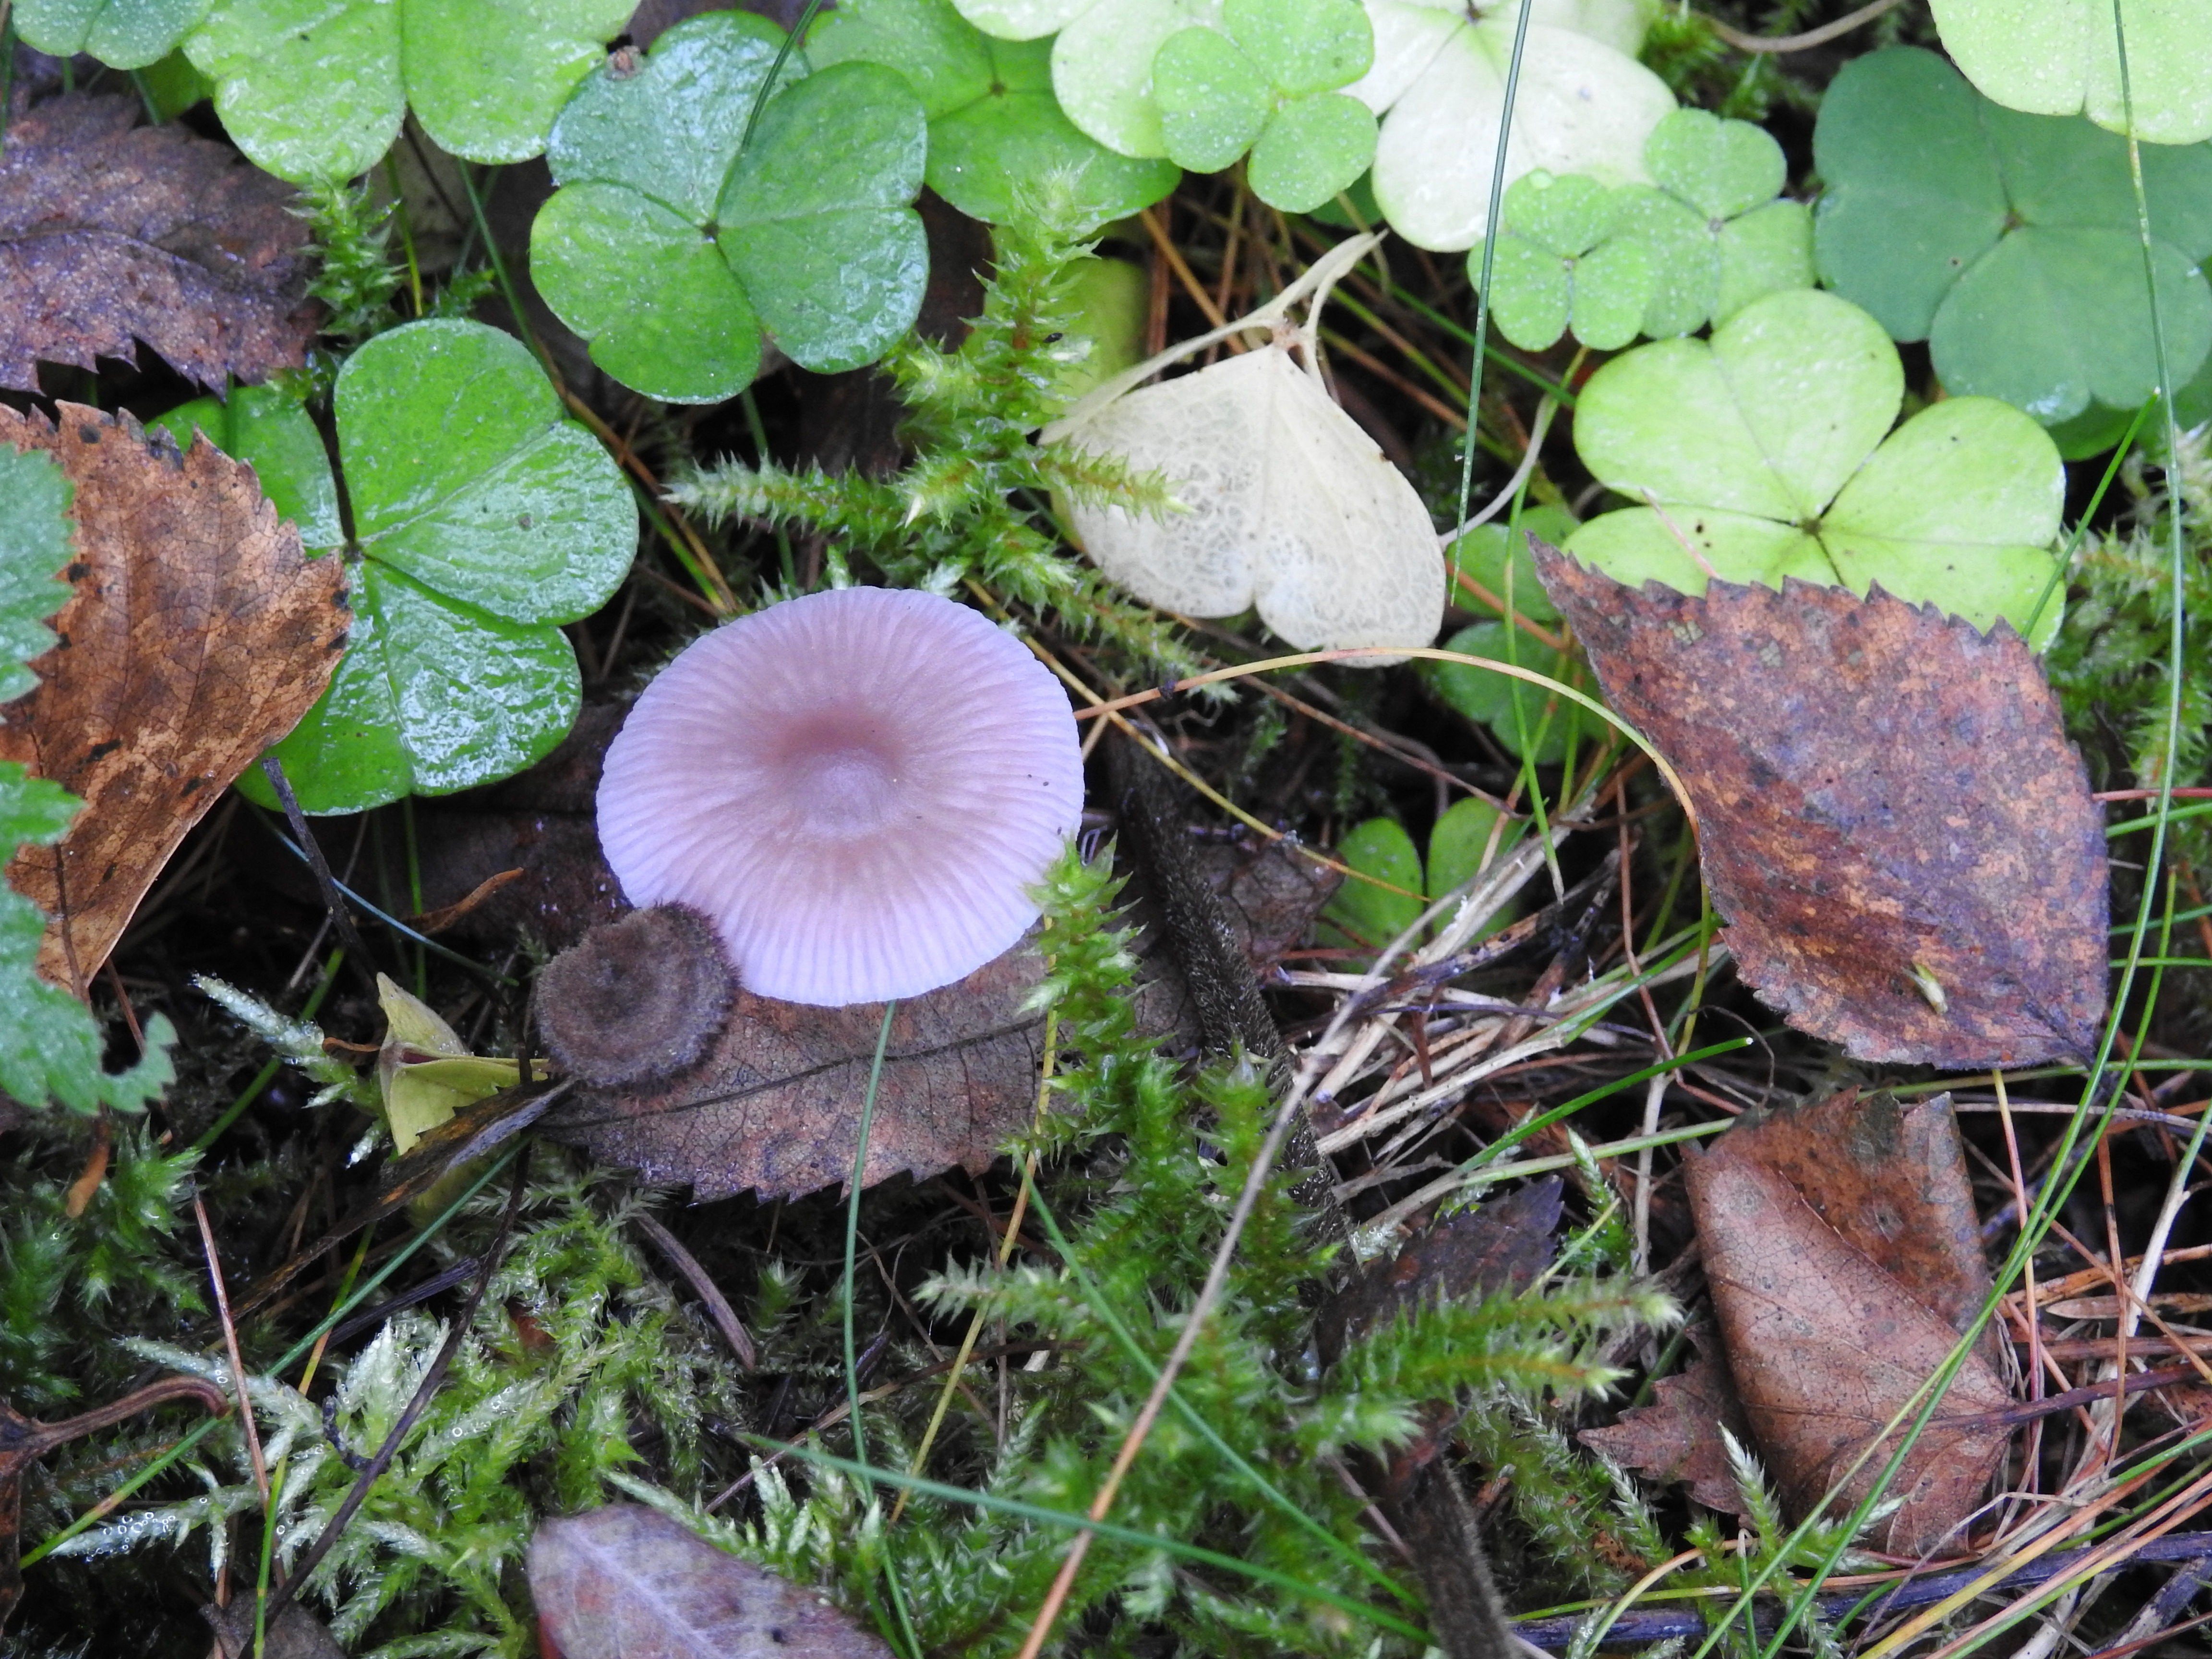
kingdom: Fungi
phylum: Basidiomycota
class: Agaricomycetes
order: Agaricales
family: Mycenaceae
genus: Mycena
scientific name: Mycena pearsoniana
